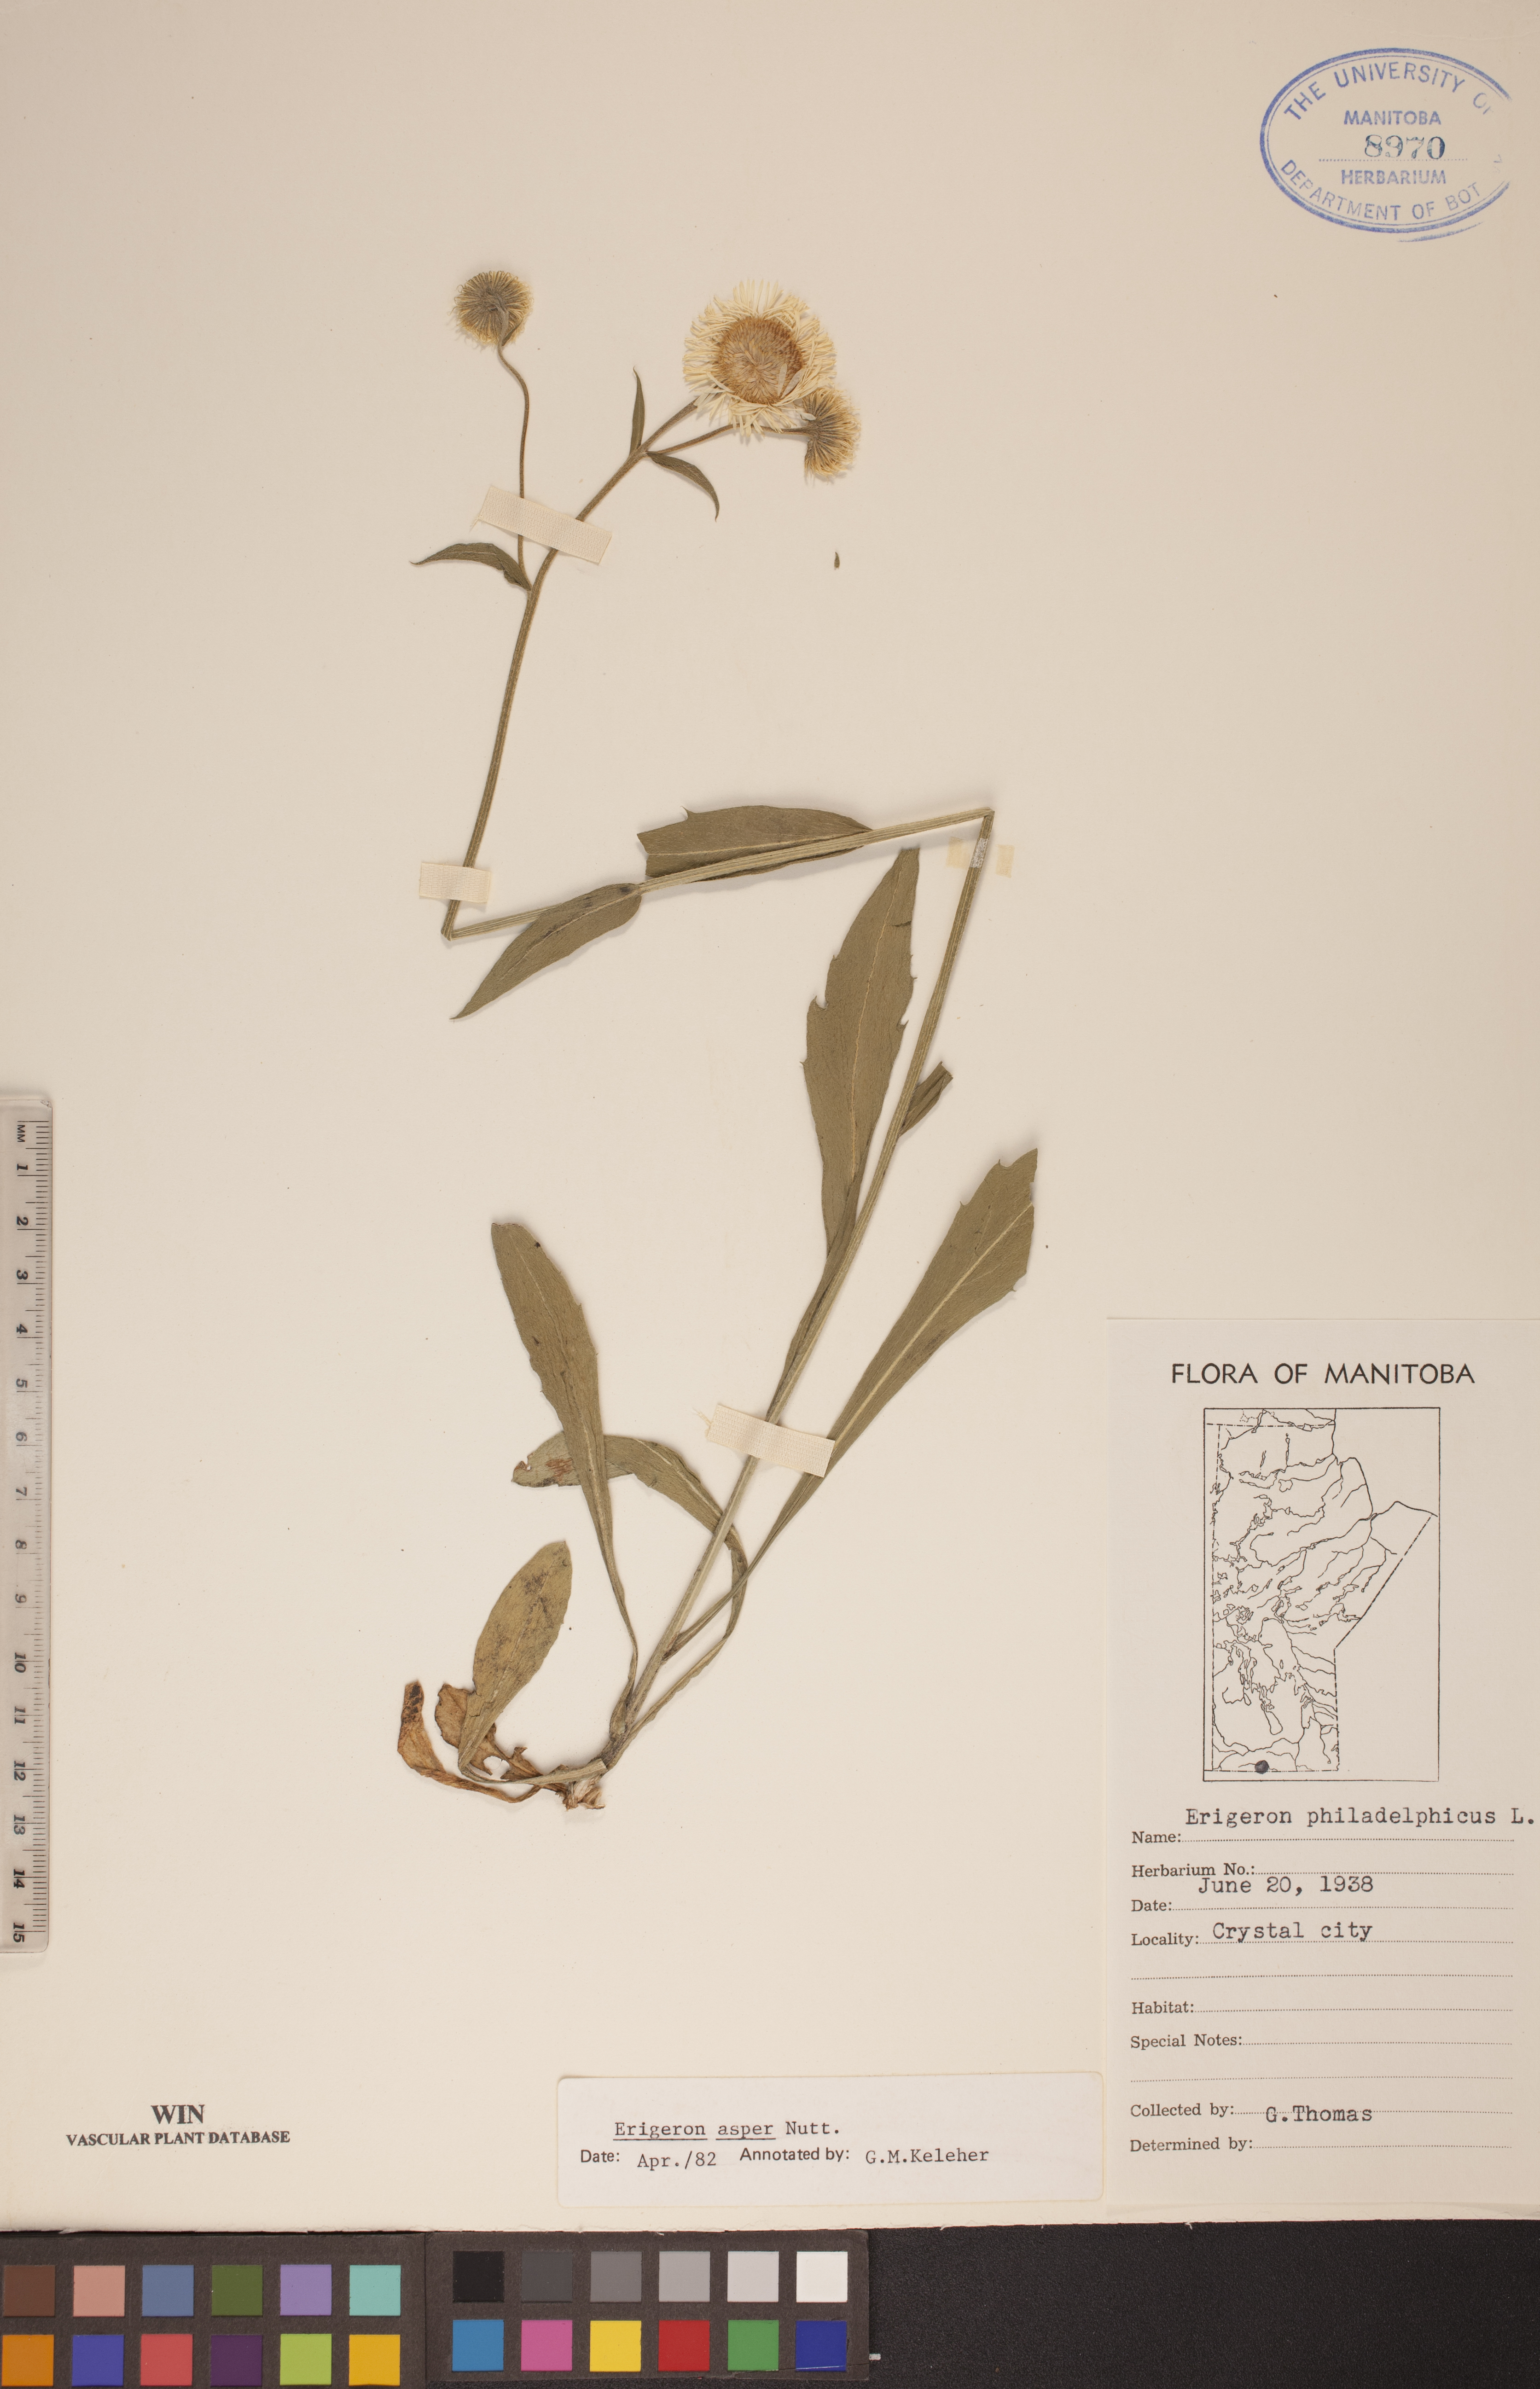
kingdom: Plantae
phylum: Tracheophyta
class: Magnoliopsida
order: Asterales
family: Asteraceae
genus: Erigeron
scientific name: Erigeron glabellus
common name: Smooth fleabane
